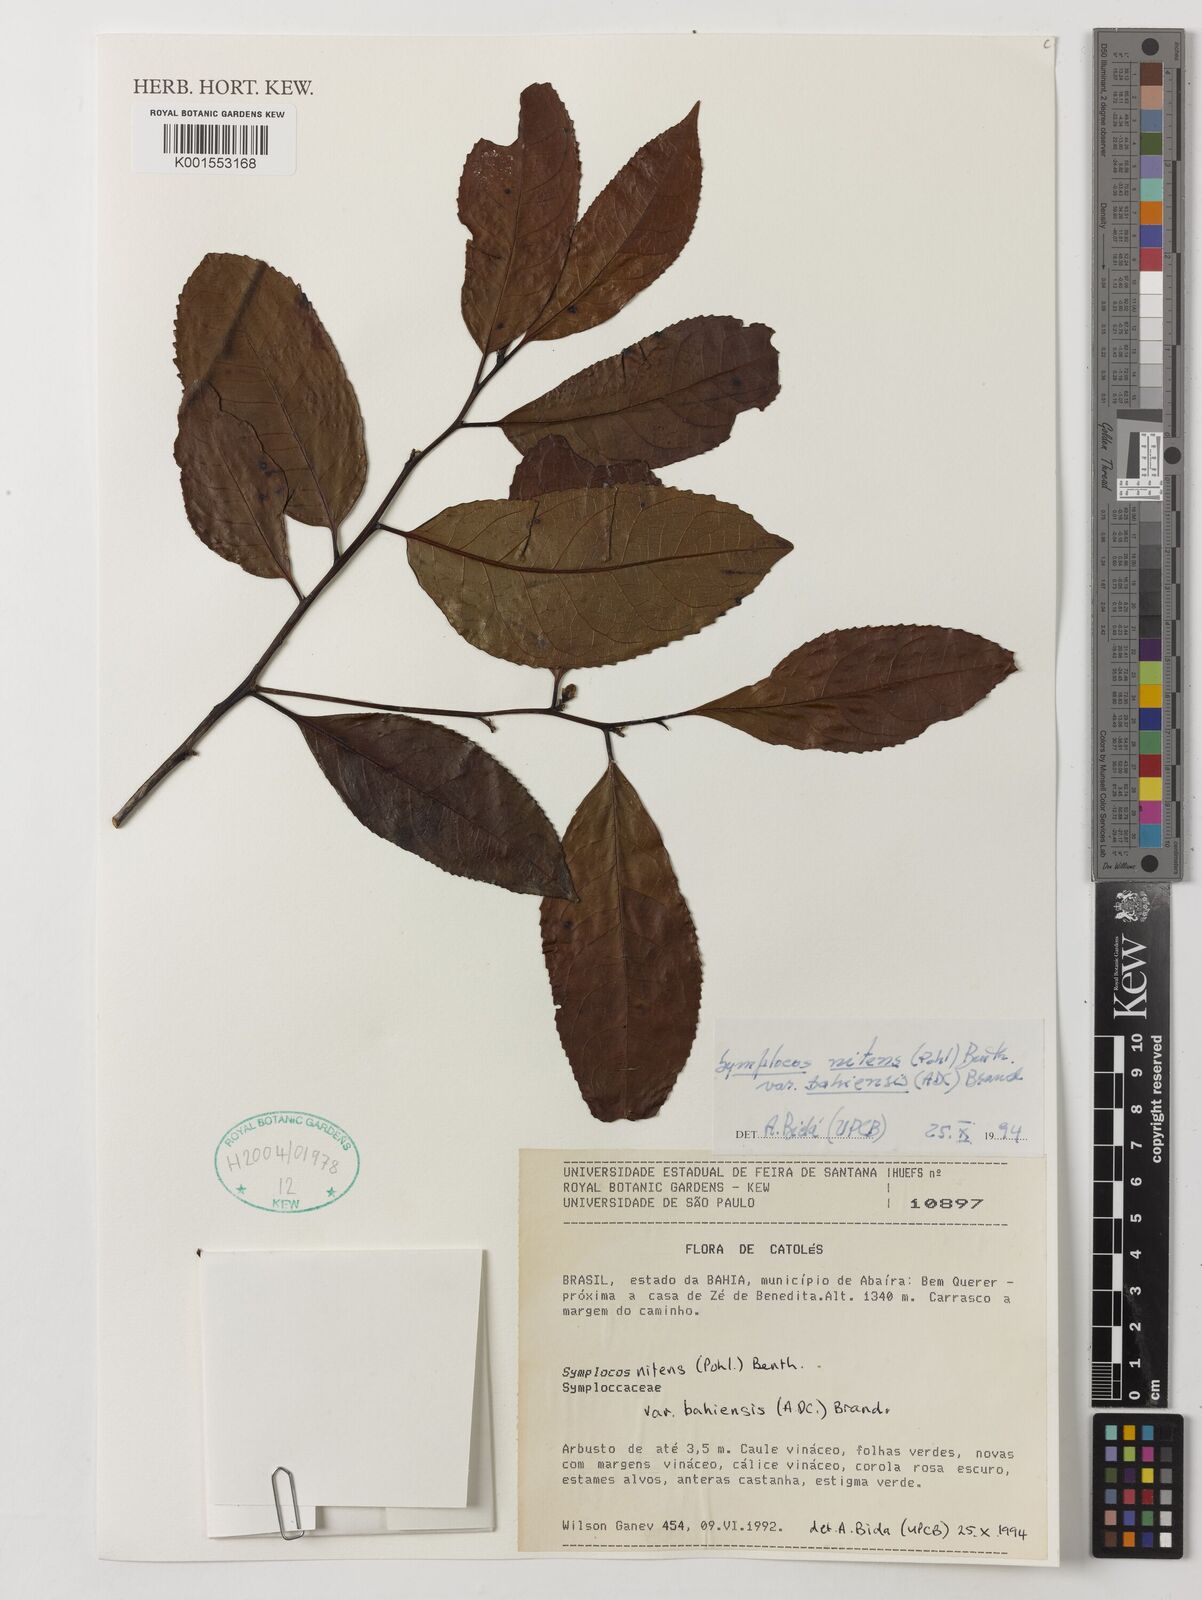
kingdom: Plantae
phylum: Tracheophyta
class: Magnoliopsida
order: Ericales
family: Symplocaceae
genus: Symplocos
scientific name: Symplocos nitens
